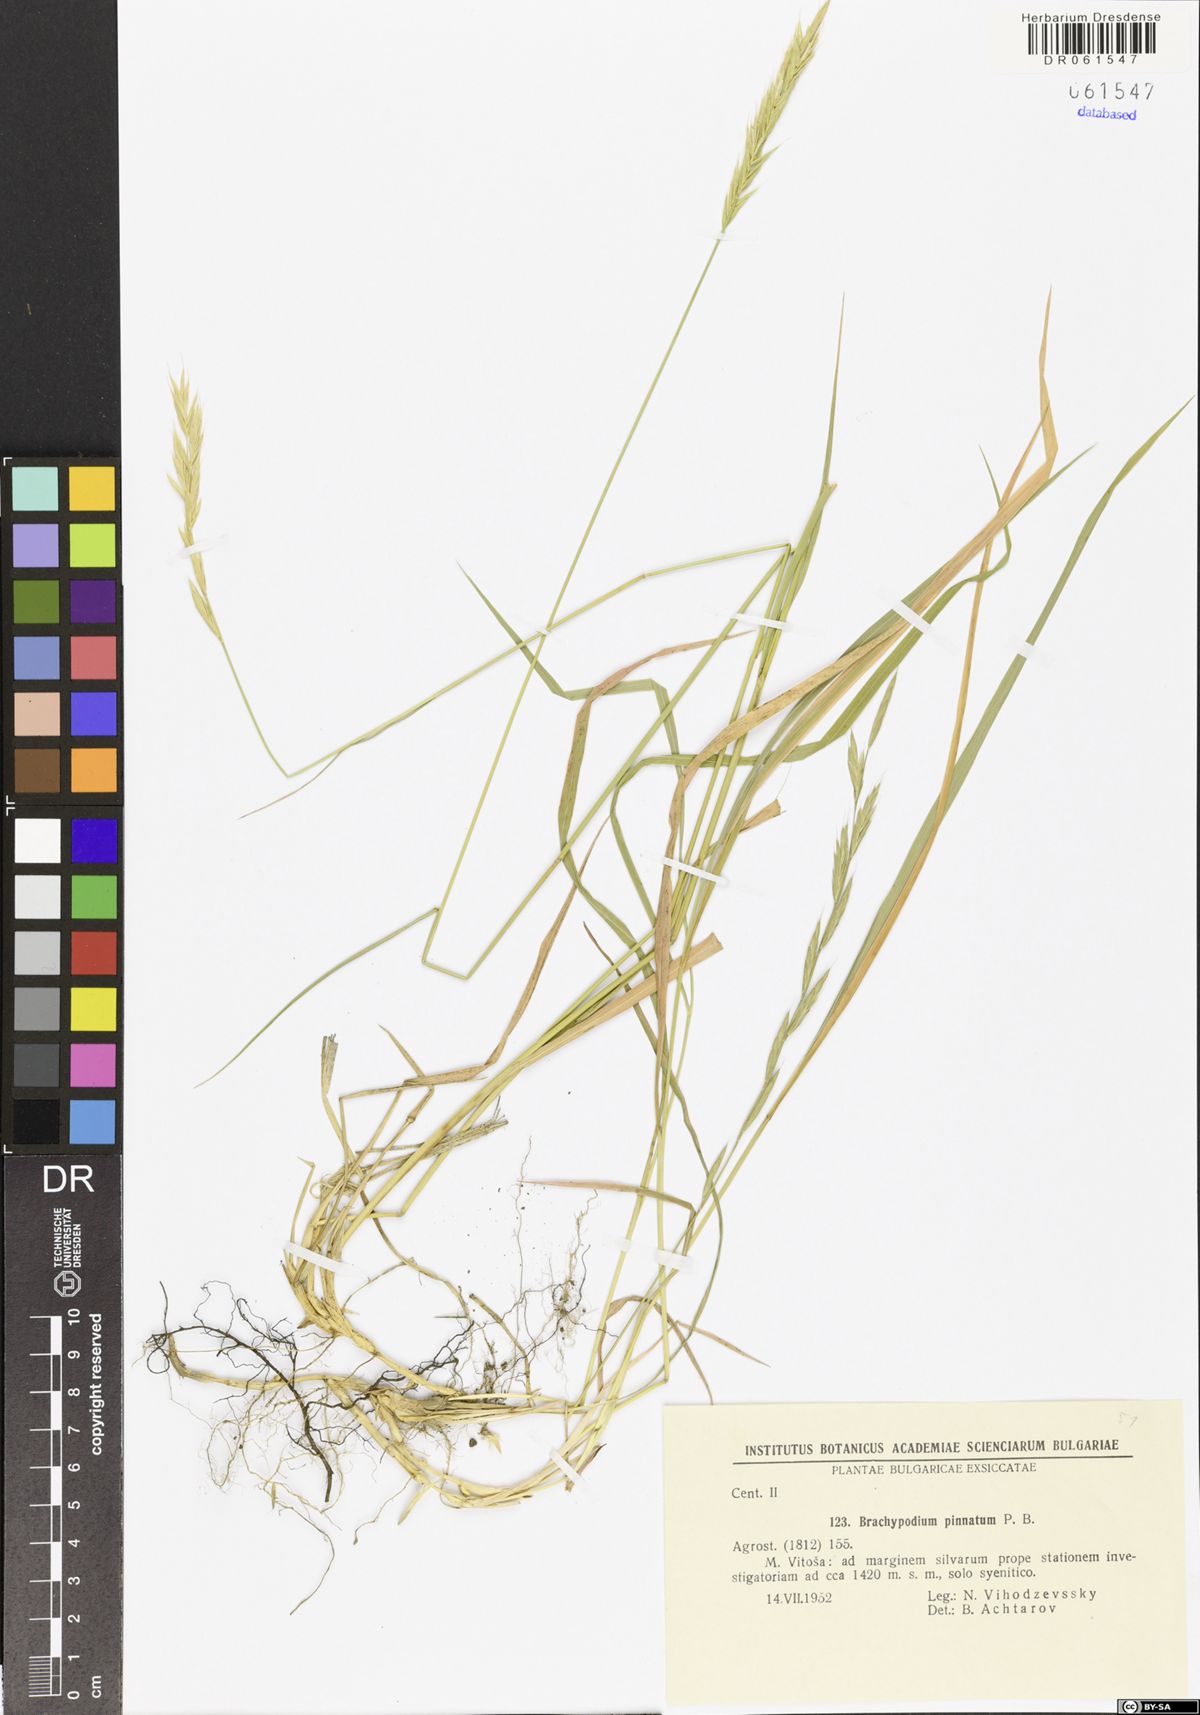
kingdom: Plantae
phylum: Tracheophyta
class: Liliopsida
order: Poales
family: Poaceae
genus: Brachypodium
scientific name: Brachypodium pinnatum
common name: Tor grass
